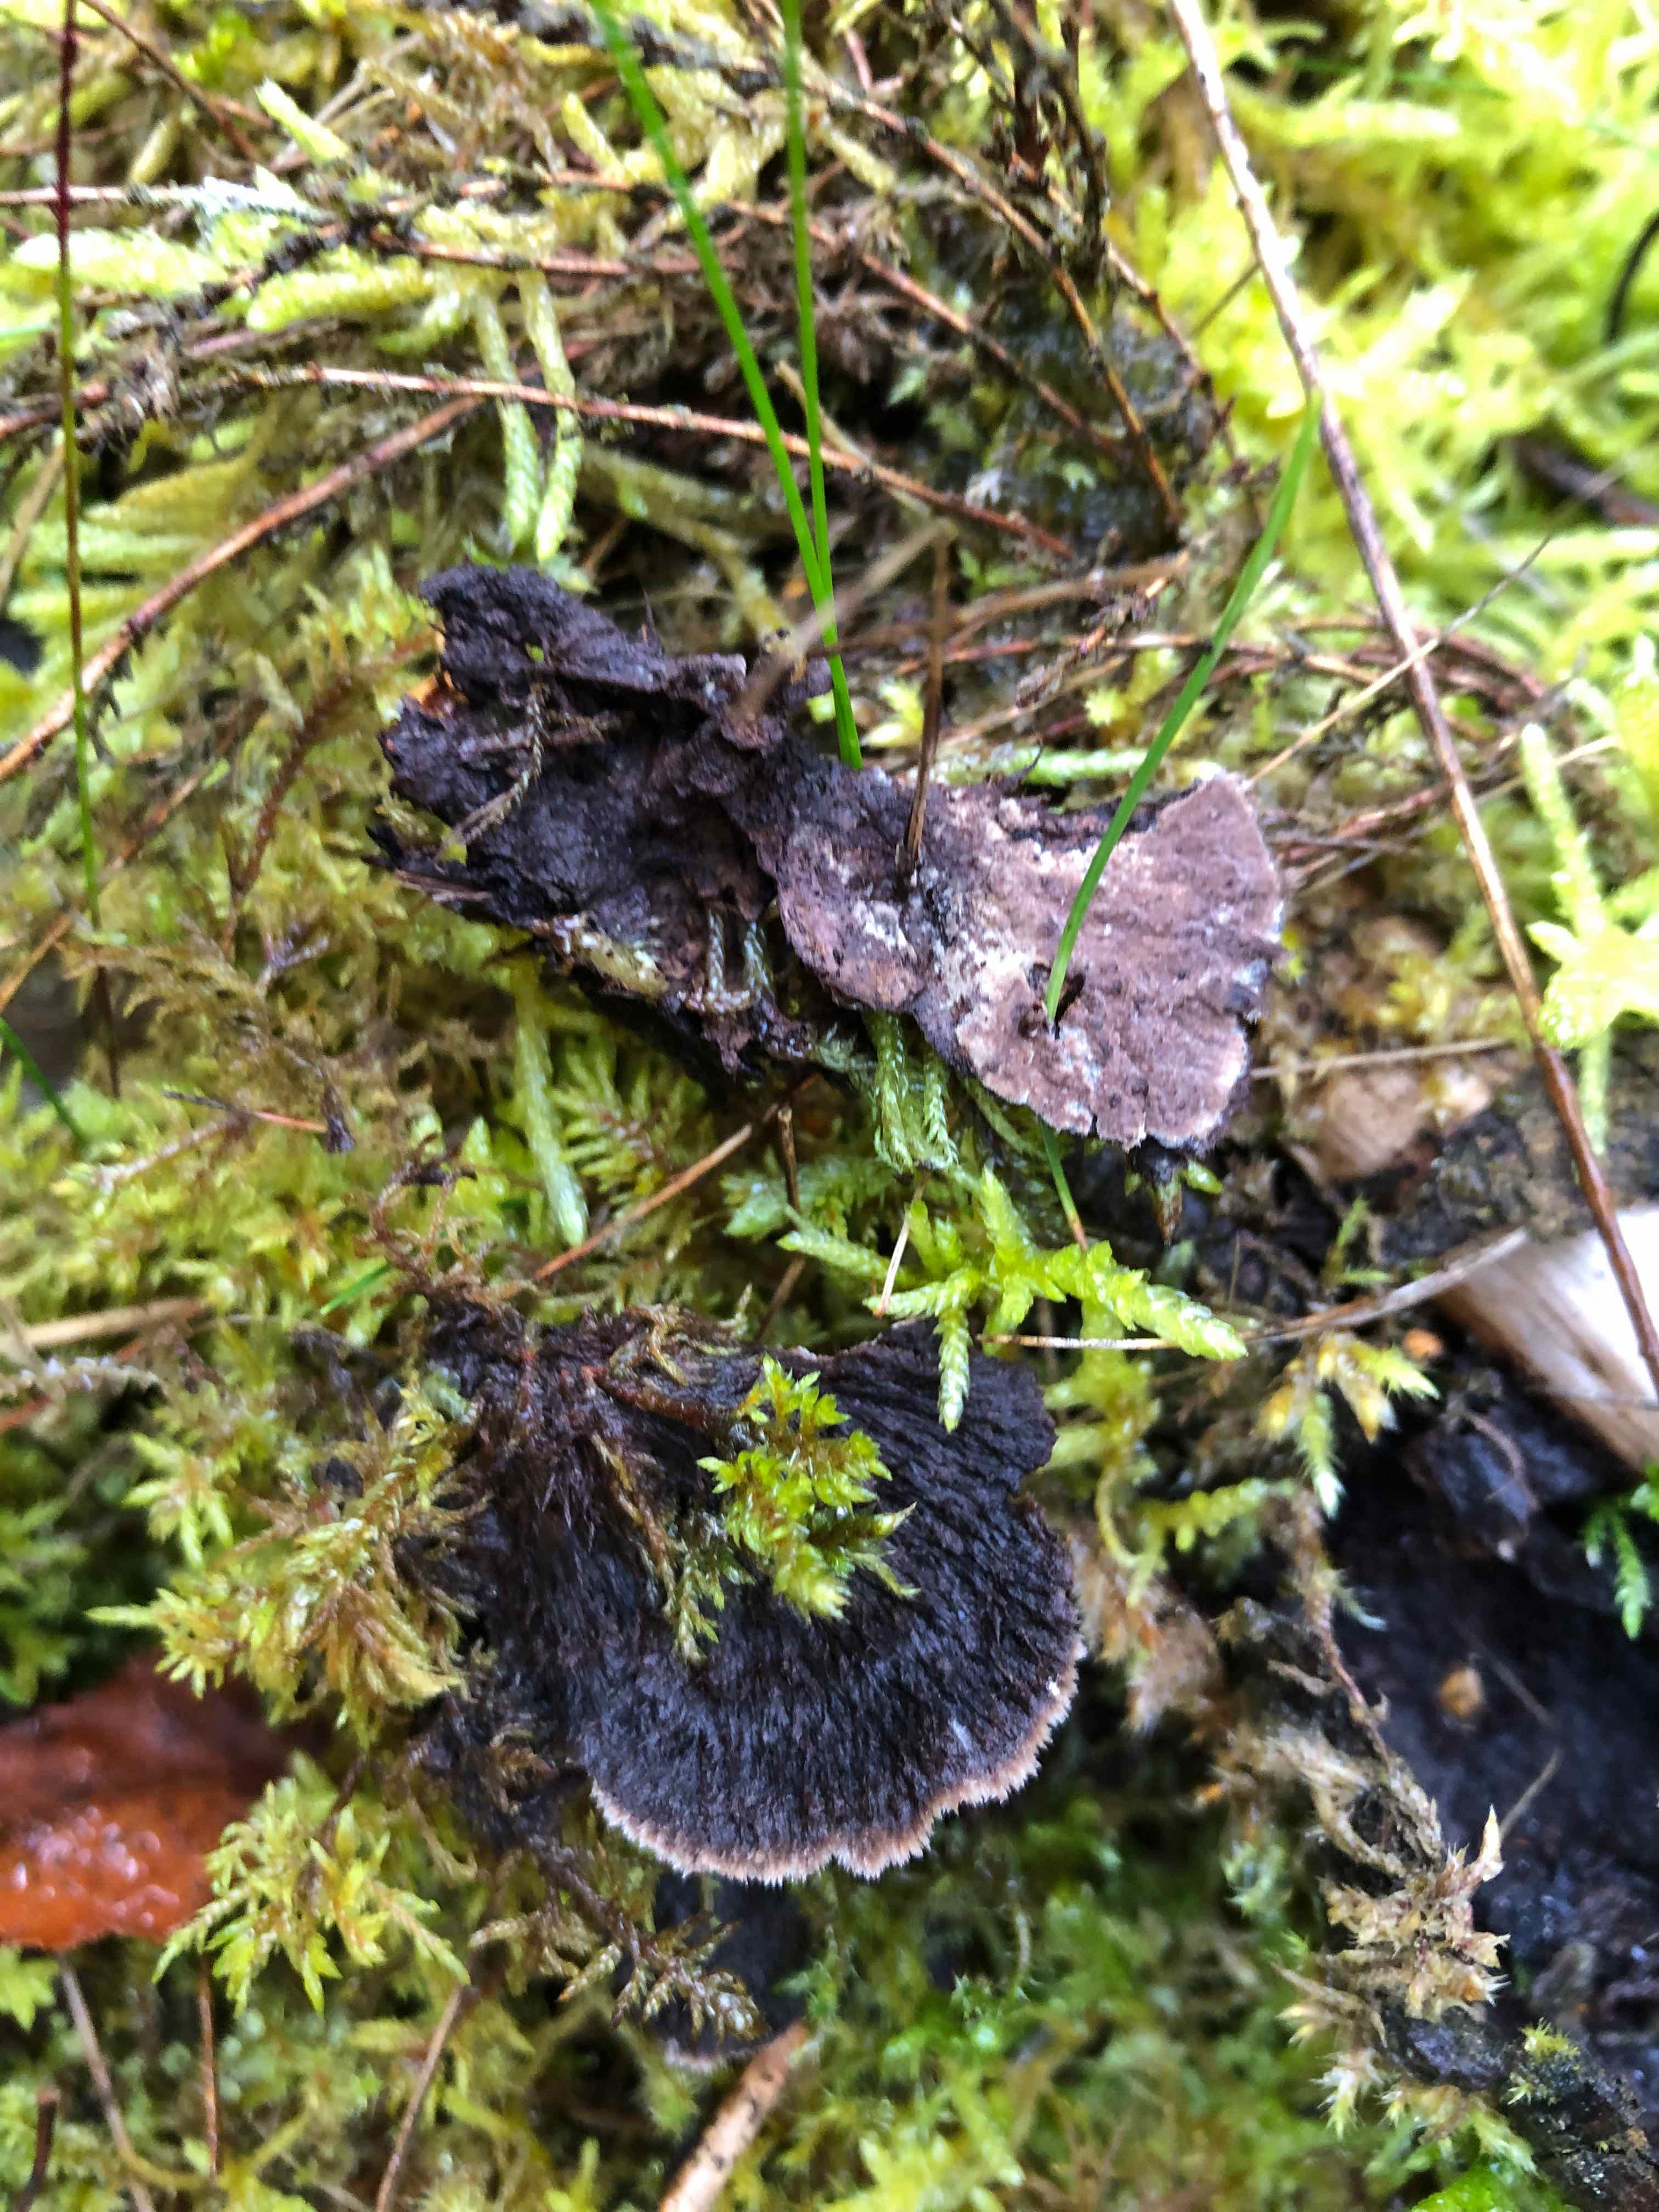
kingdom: Fungi
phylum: Basidiomycota
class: Agaricomycetes
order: Thelephorales
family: Thelephoraceae
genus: Thelephora
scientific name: Thelephora terrestris
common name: fliget frynsesvamp
